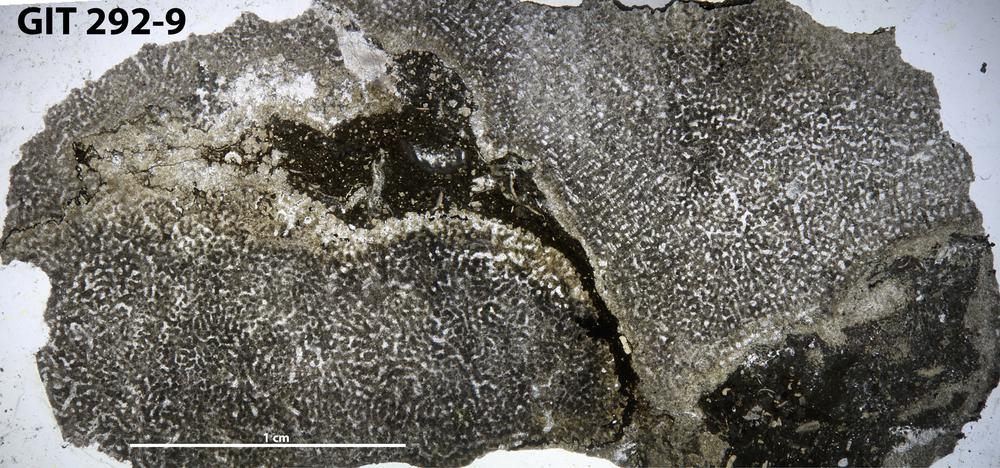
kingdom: Animalia
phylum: Porifera
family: Syringostromellidae
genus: Syringostromella
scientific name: Syringostromella
